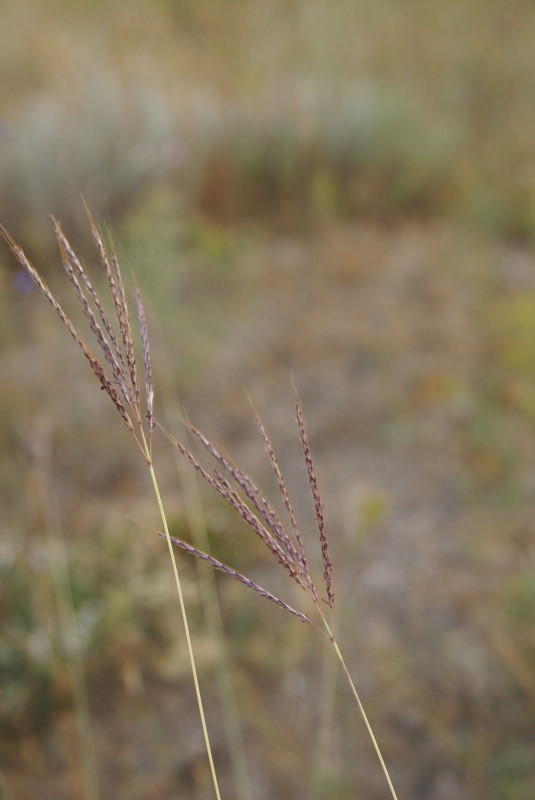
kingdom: Plantae
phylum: Tracheophyta
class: Liliopsida
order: Poales
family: Poaceae
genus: Cynodon
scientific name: Cynodon dactylon
